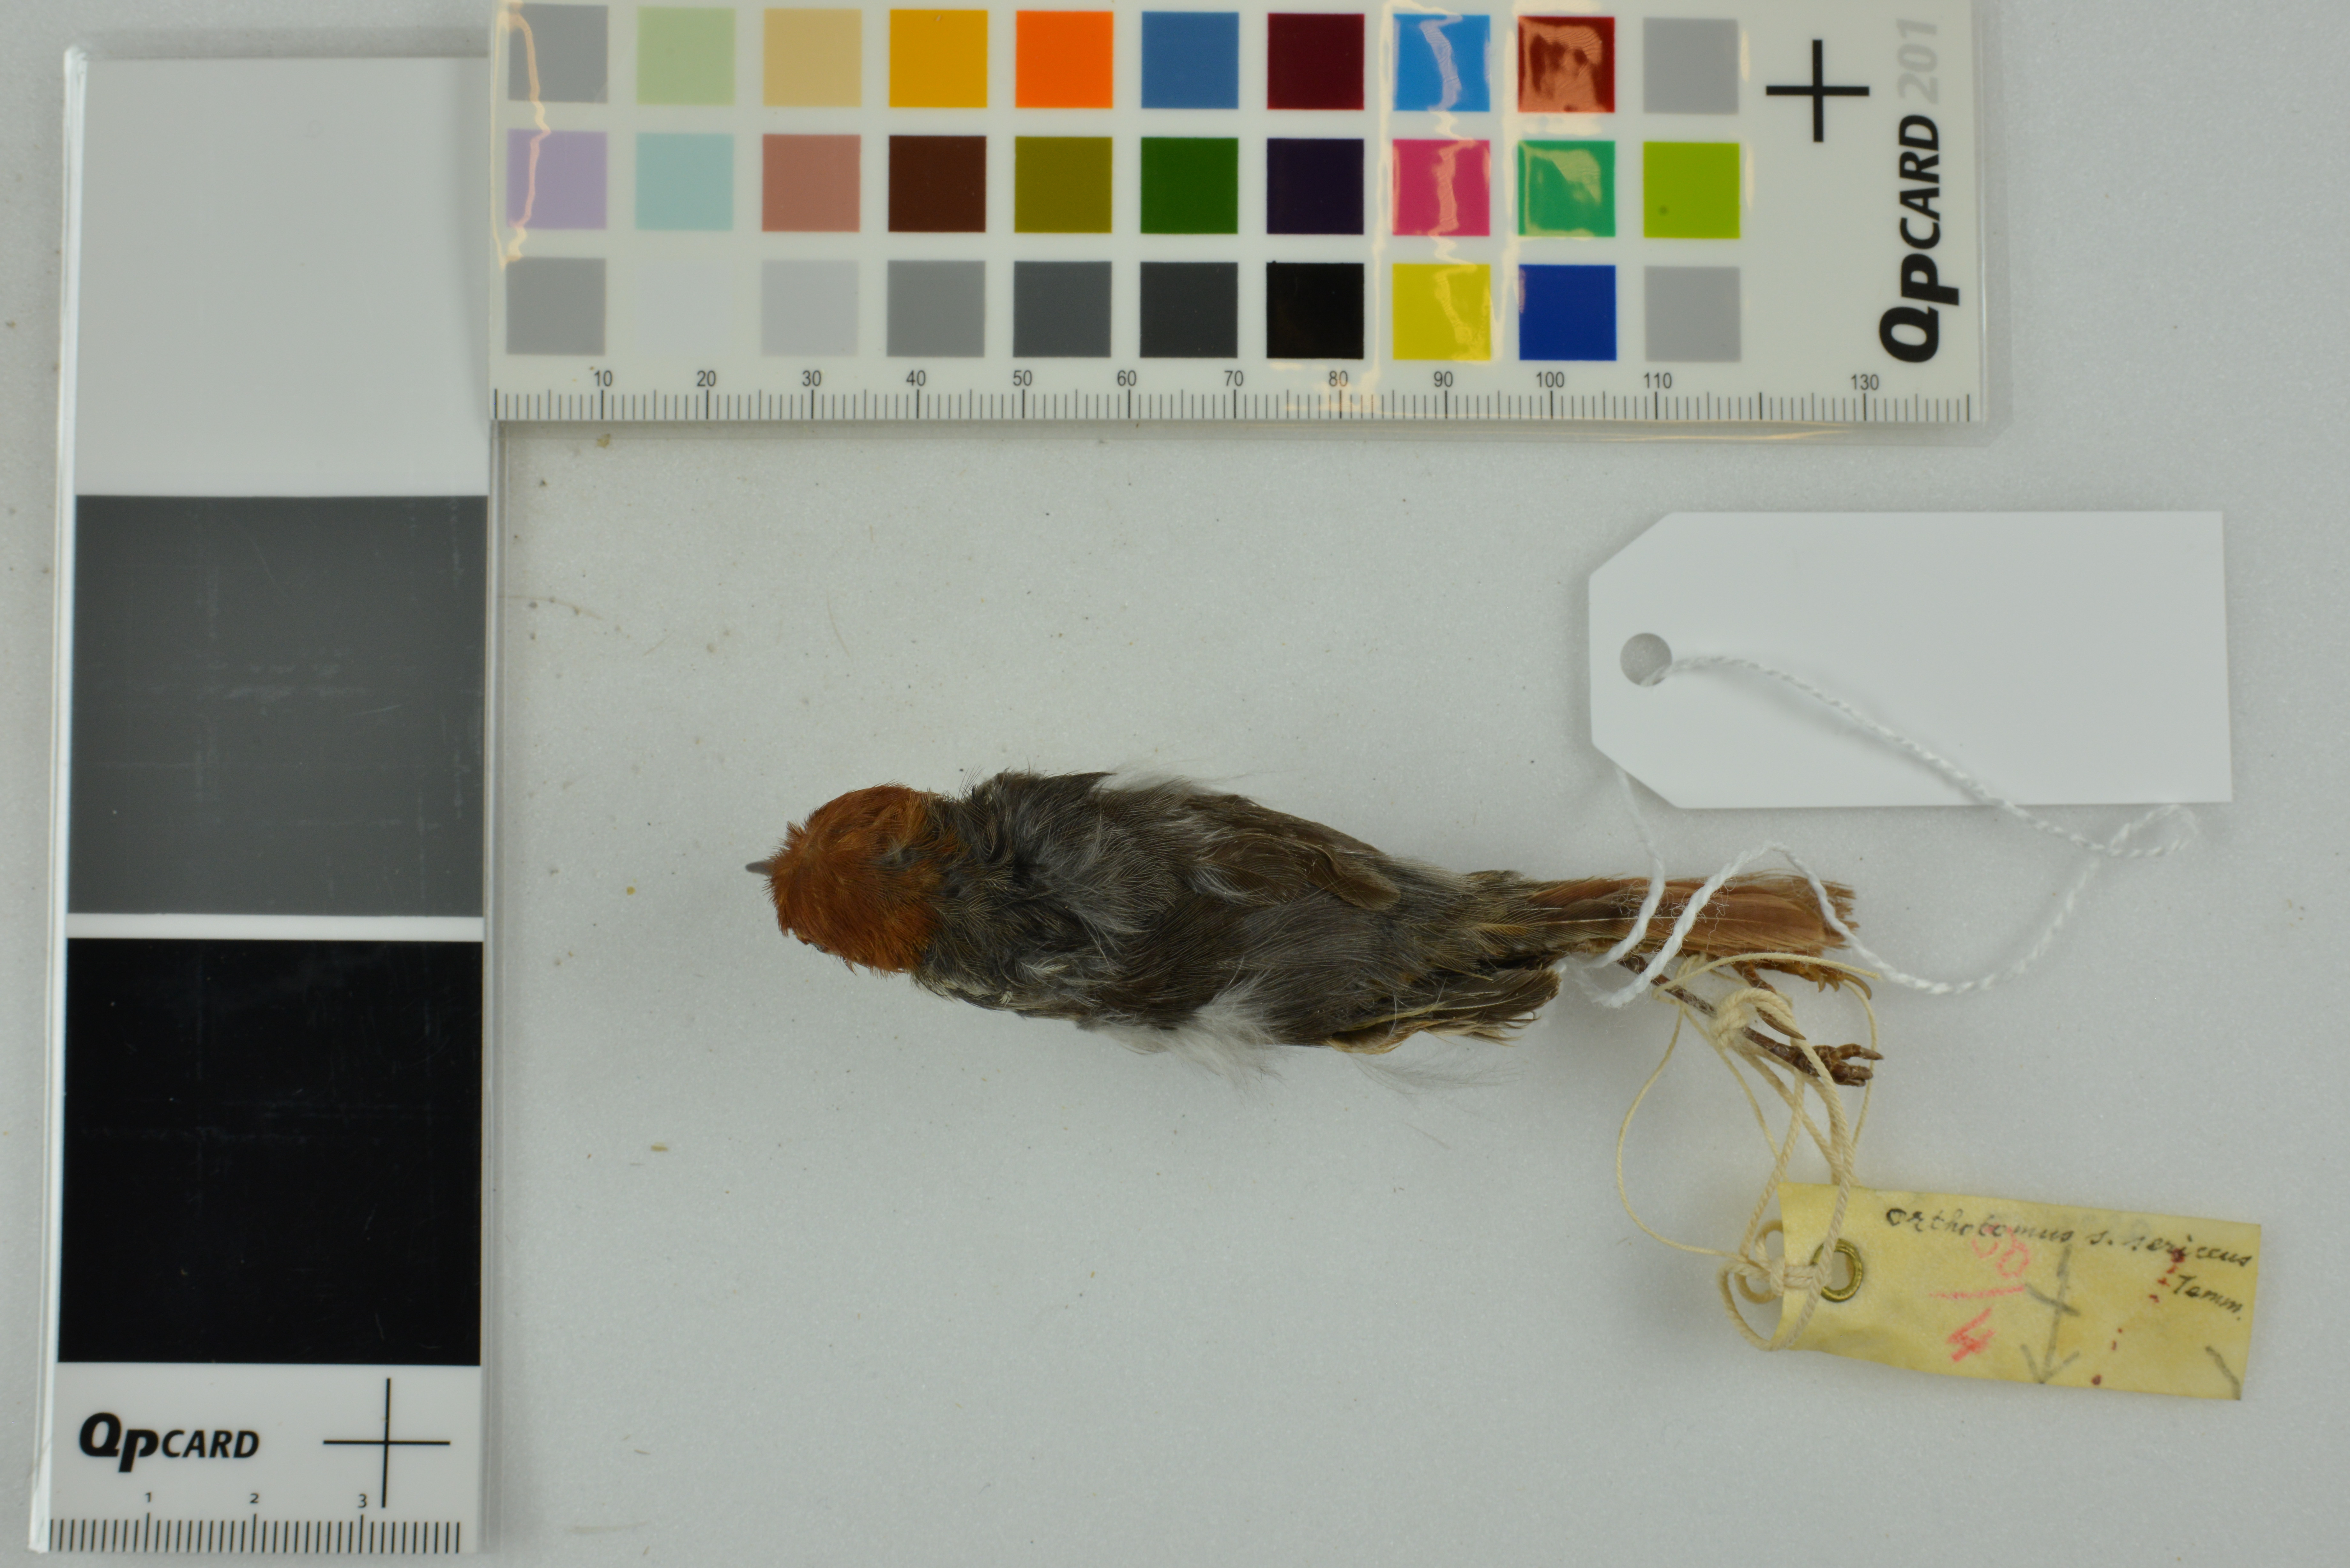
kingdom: Animalia
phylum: Chordata
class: Aves
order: Passeriformes
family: Cisticolidae
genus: Orthotomus
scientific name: Orthotomus sericeus
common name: Rufous-tailed tailorbird
